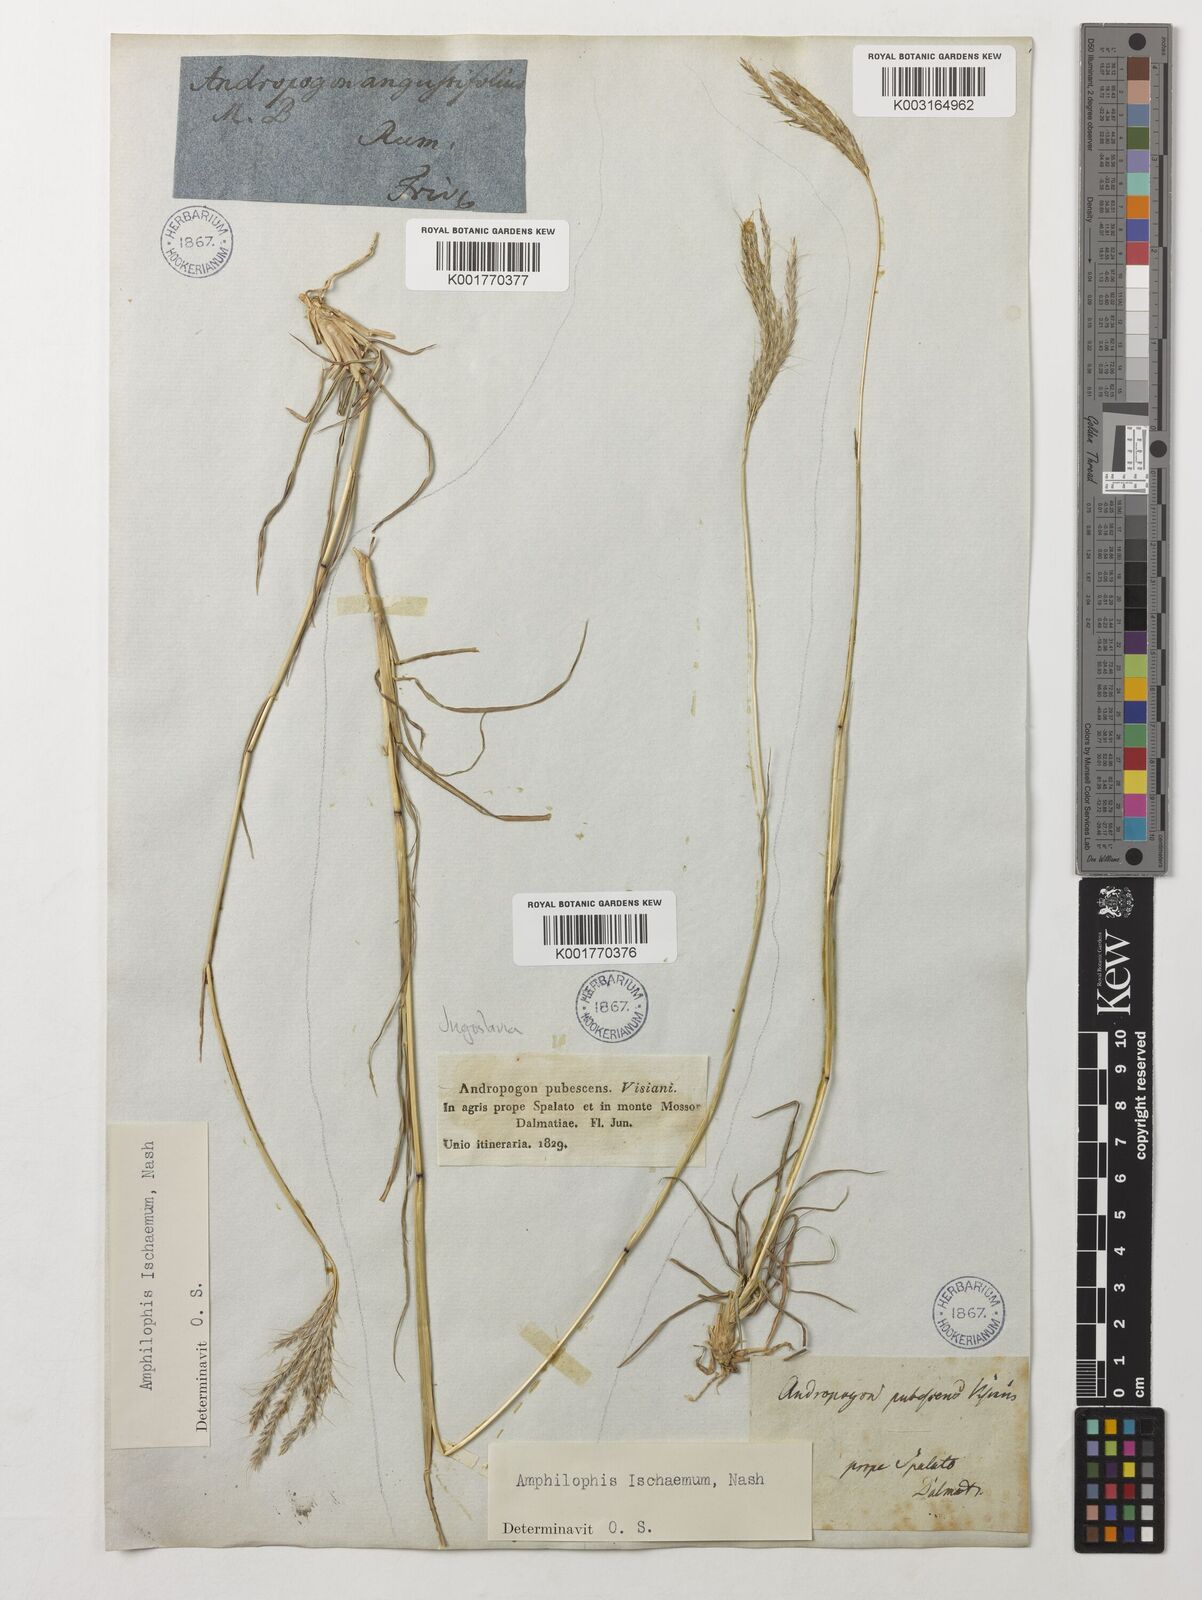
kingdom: Plantae
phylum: Tracheophyta
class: Liliopsida
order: Poales
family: Poaceae
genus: Bothriochloa
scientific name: Bothriochloa ischaemum
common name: Yellow bluestem
